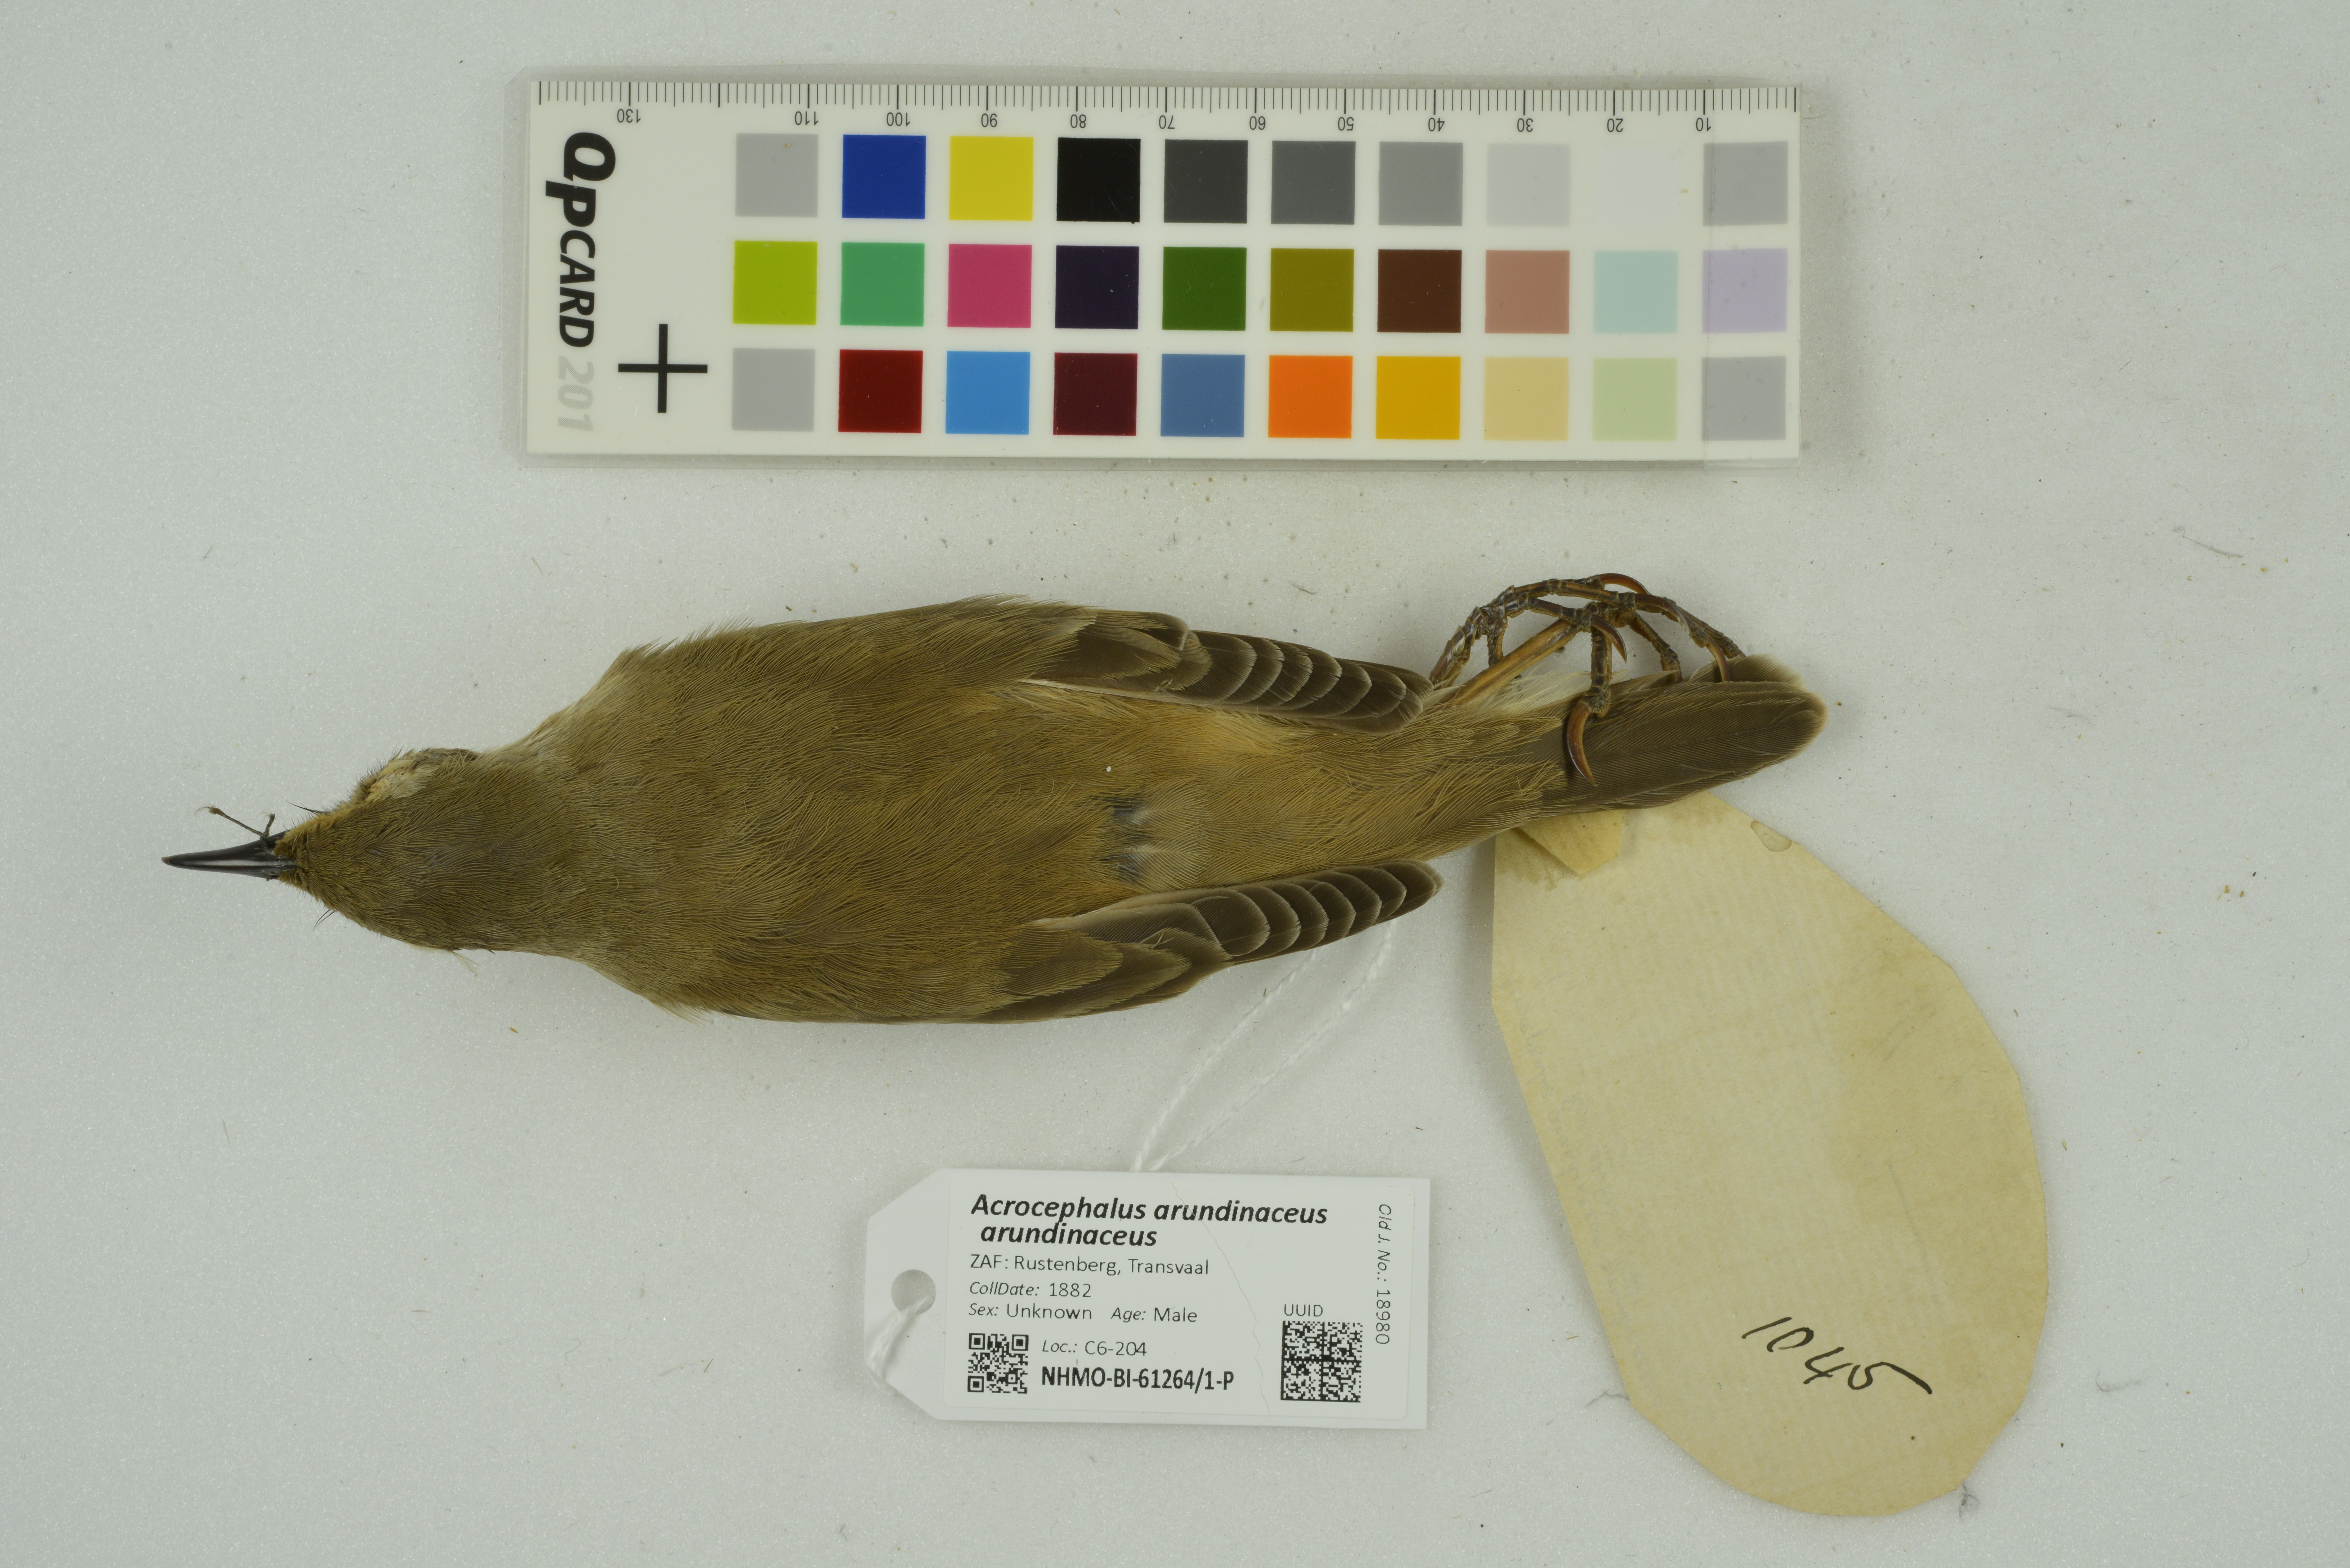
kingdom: Animalia
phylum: Chordata
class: Aves
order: Passeriformes
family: Acrocephalidae
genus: Acrocephalus
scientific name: Acrocephalus arundinaceus
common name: Great reed warbler
